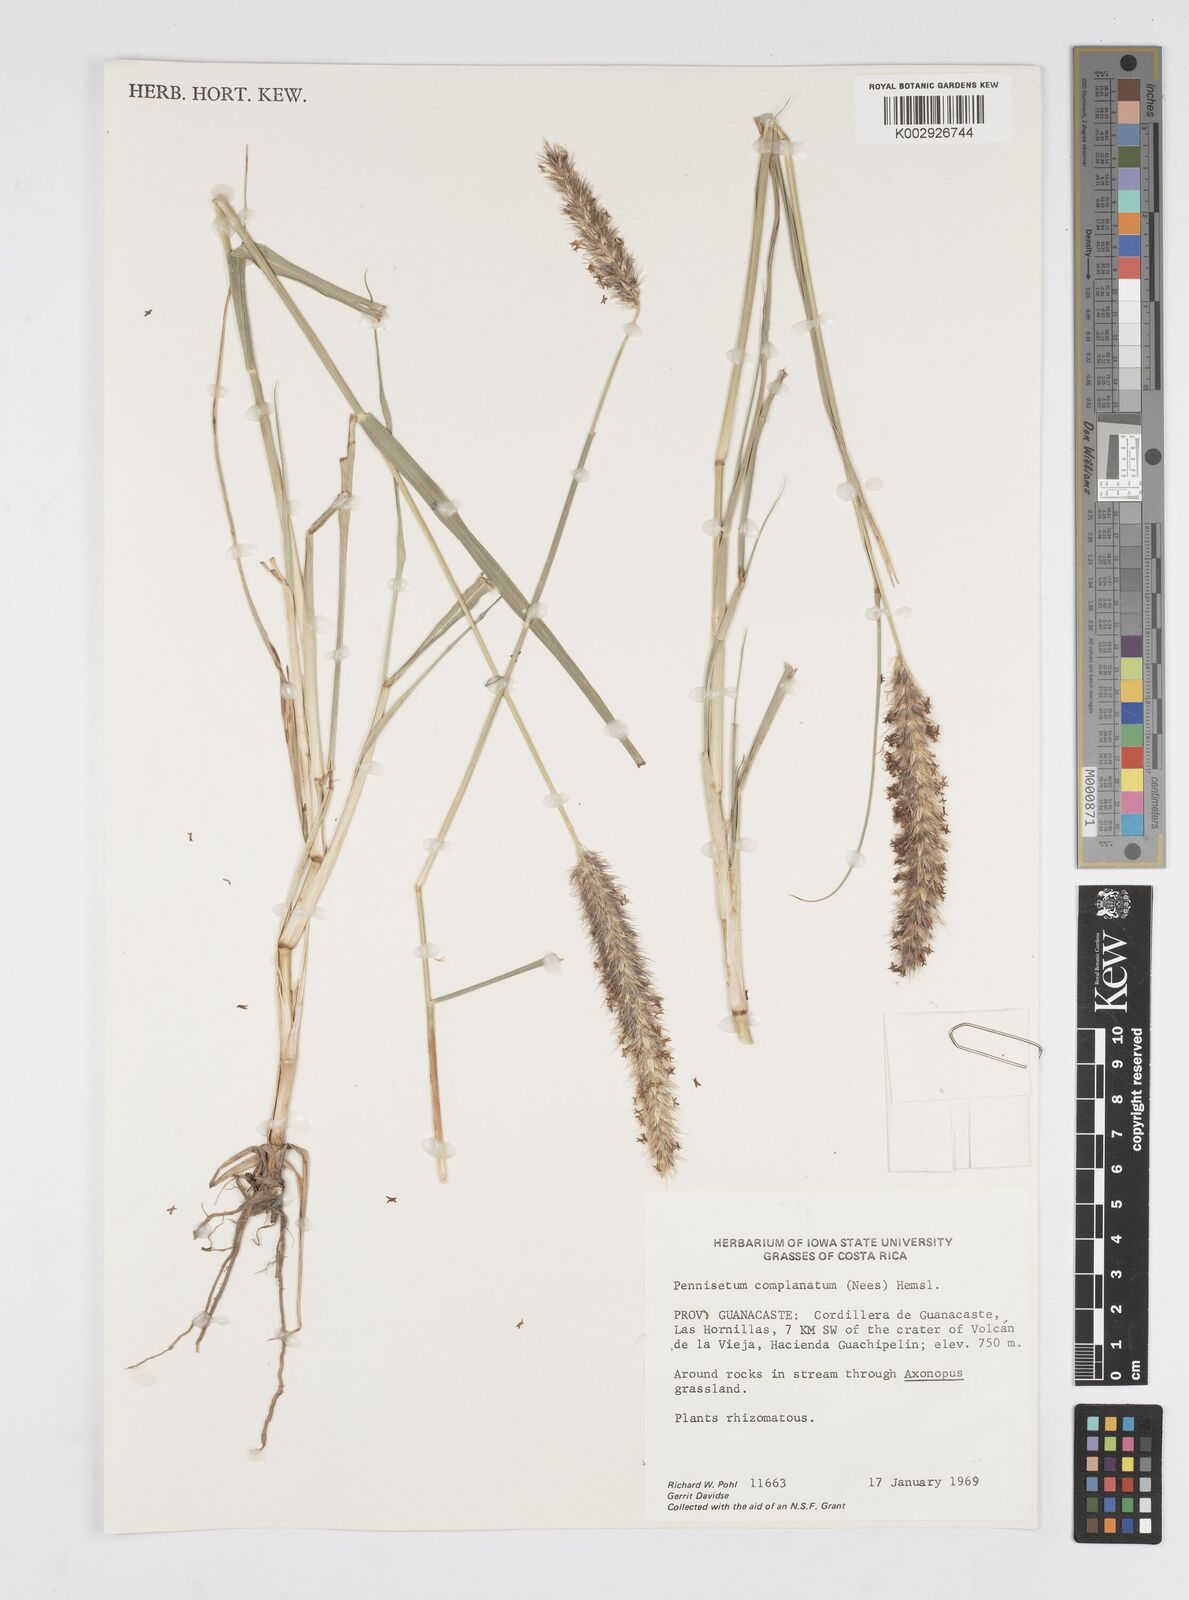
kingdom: Plantae
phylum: Tracheophyta
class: Liliopsida
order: Poales
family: Poaceae
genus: Cenchrus
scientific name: Cenchrus complanatus
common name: Nicaraguan fountaingrass
